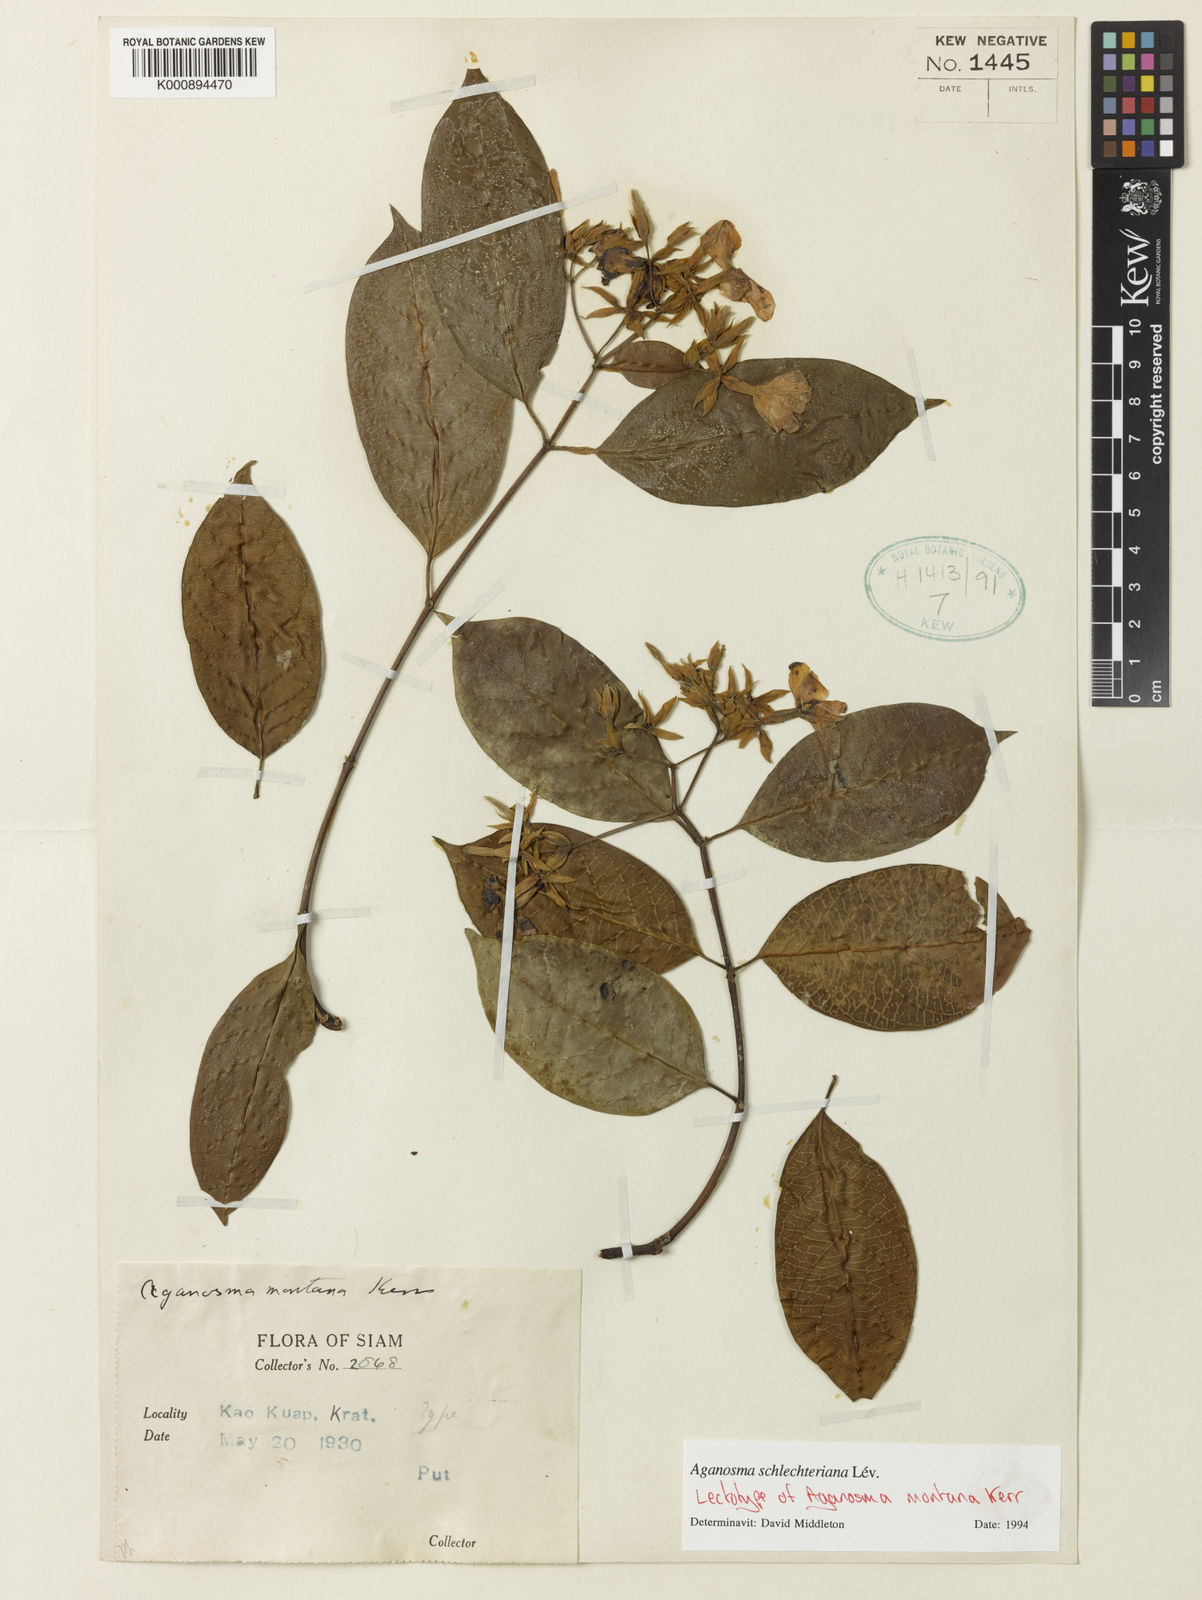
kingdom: Plantae
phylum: Tracheophyta
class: Magnoliopsida
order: Gentianales
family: Apocynaceae
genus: Aganosma
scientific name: Aganosma
